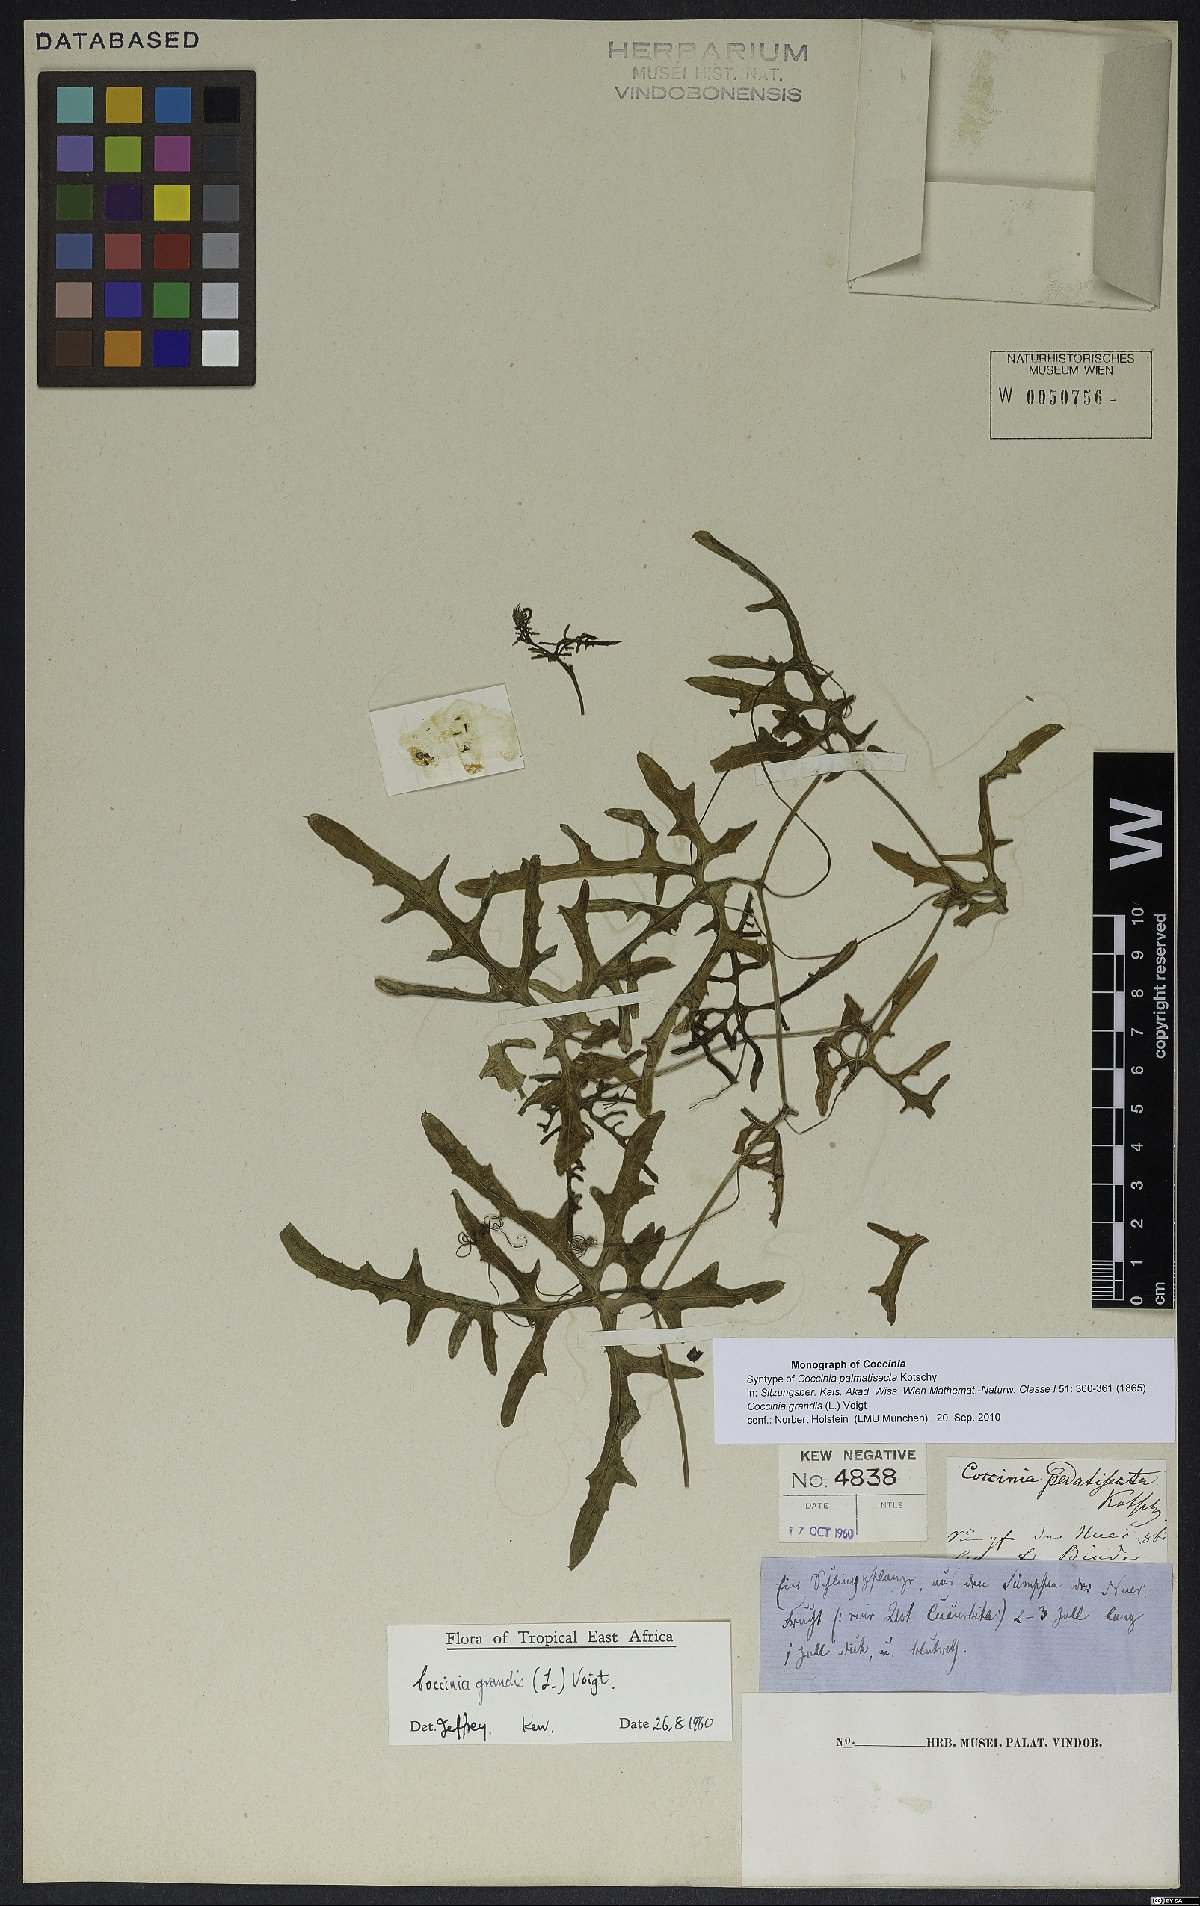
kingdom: Plantae
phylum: Tracheophyta
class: Magnoliopsida
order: Cucurbitales
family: Cucurbitaceae
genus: Coccinia
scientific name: Coccinia grandis
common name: Ivy gourd
